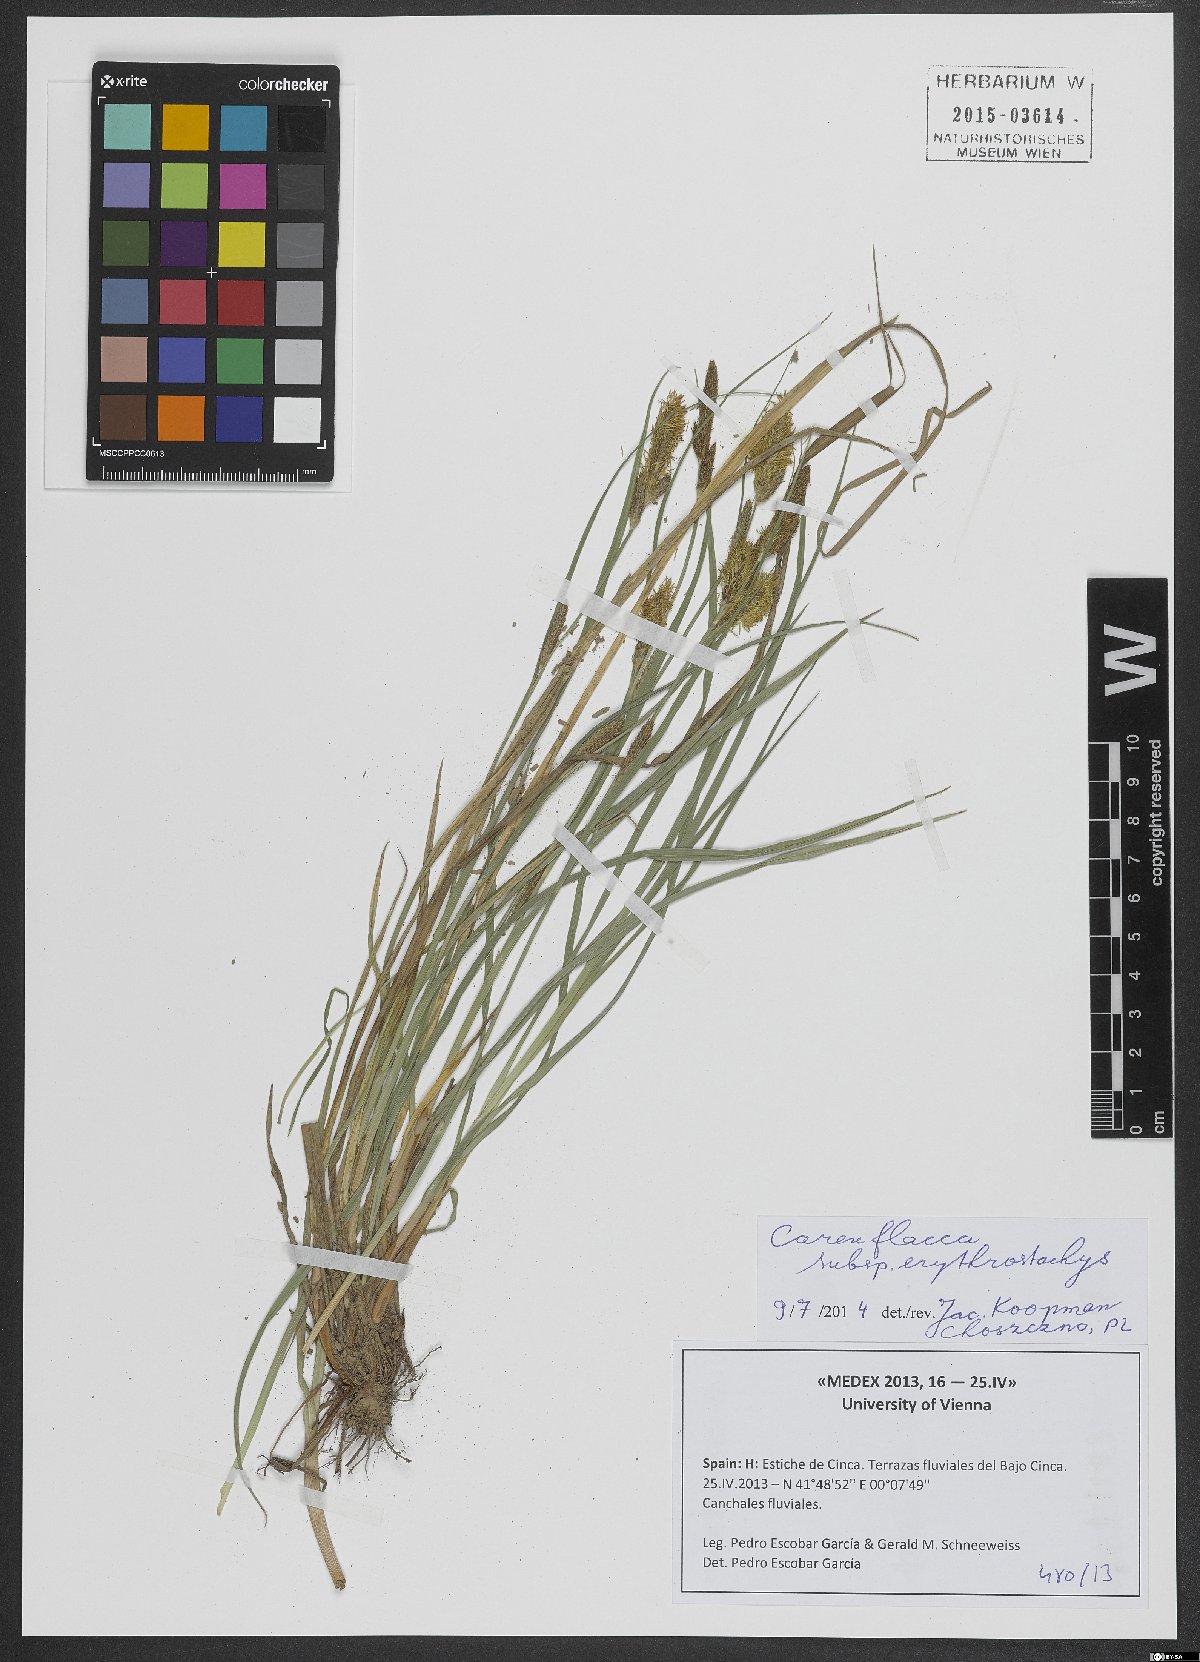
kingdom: Plantae
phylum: Tracheophyta
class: Liliopsida
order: Poales
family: Cyperaceae
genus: Carex
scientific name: Carex distans
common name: Distant sedge
